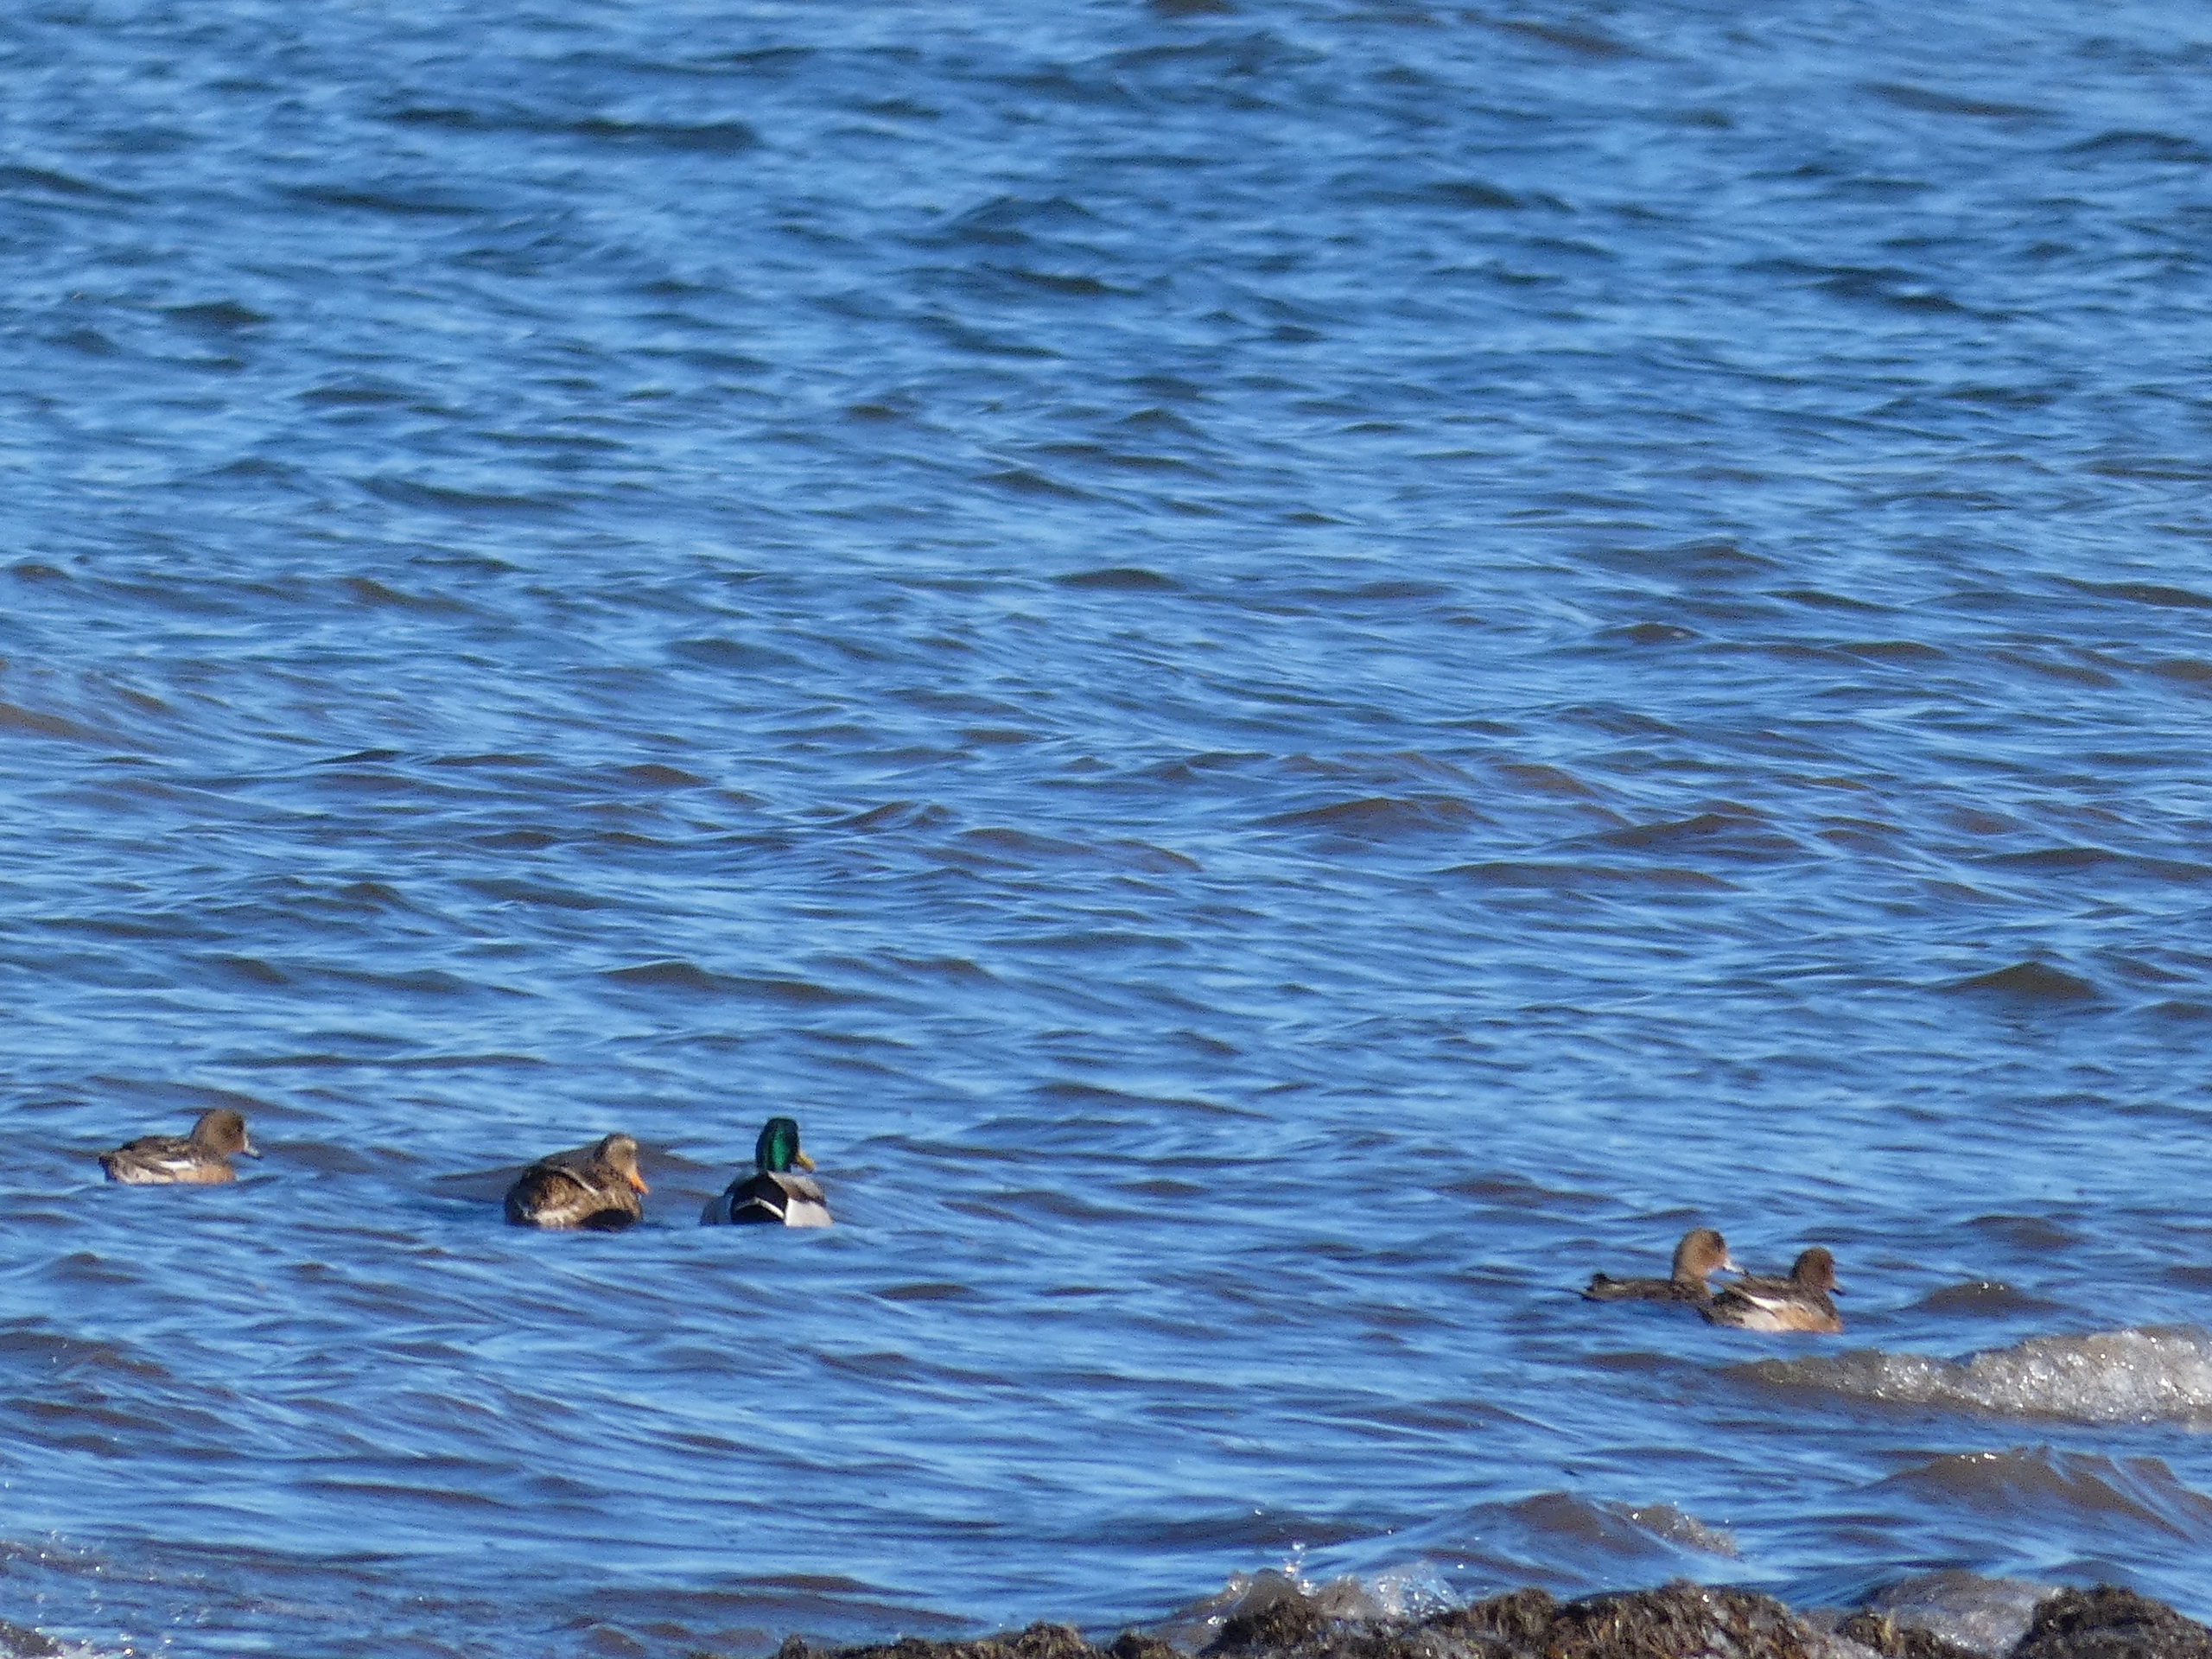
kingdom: Animalia
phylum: Chordata
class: Aves
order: Anseriformes
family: Anatidae
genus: Anas
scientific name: Anas platyrhynchos
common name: Gråand
